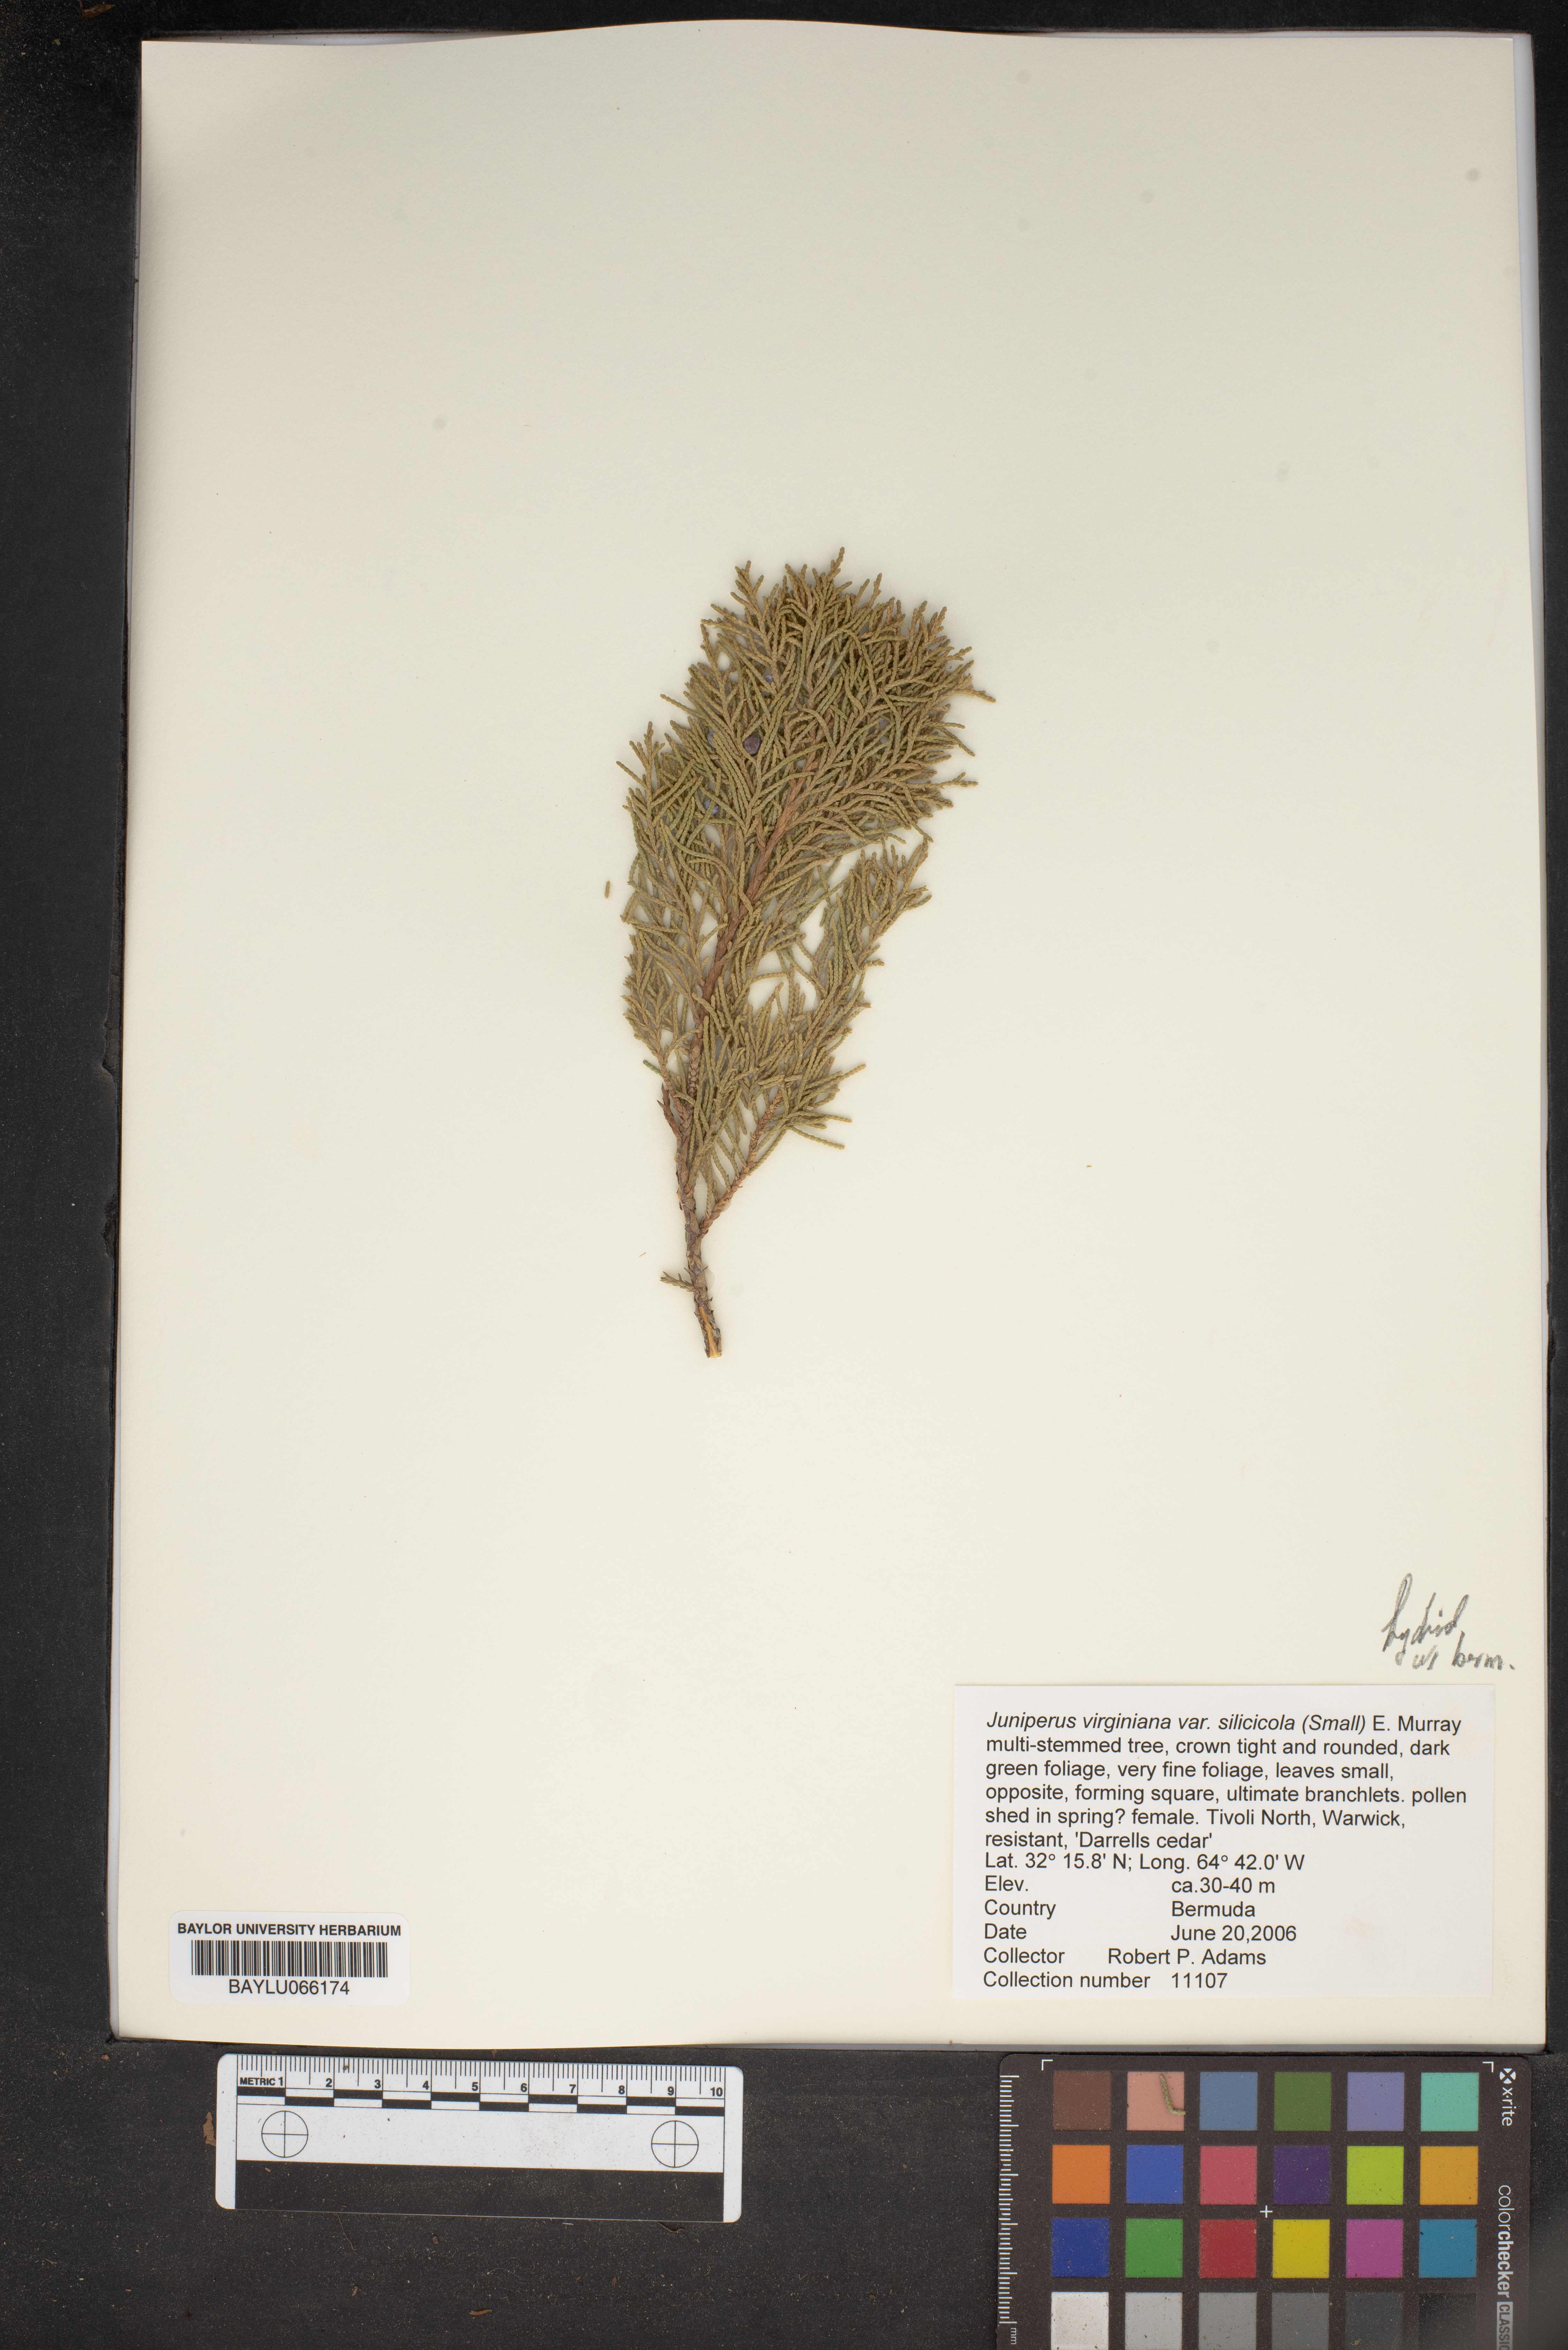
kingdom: Plantae
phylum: Tracheophyta
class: Pinopsida
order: Pinales
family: Cupressaceae
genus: Juniperus
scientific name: Juniperus virginiana
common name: Red juniper
